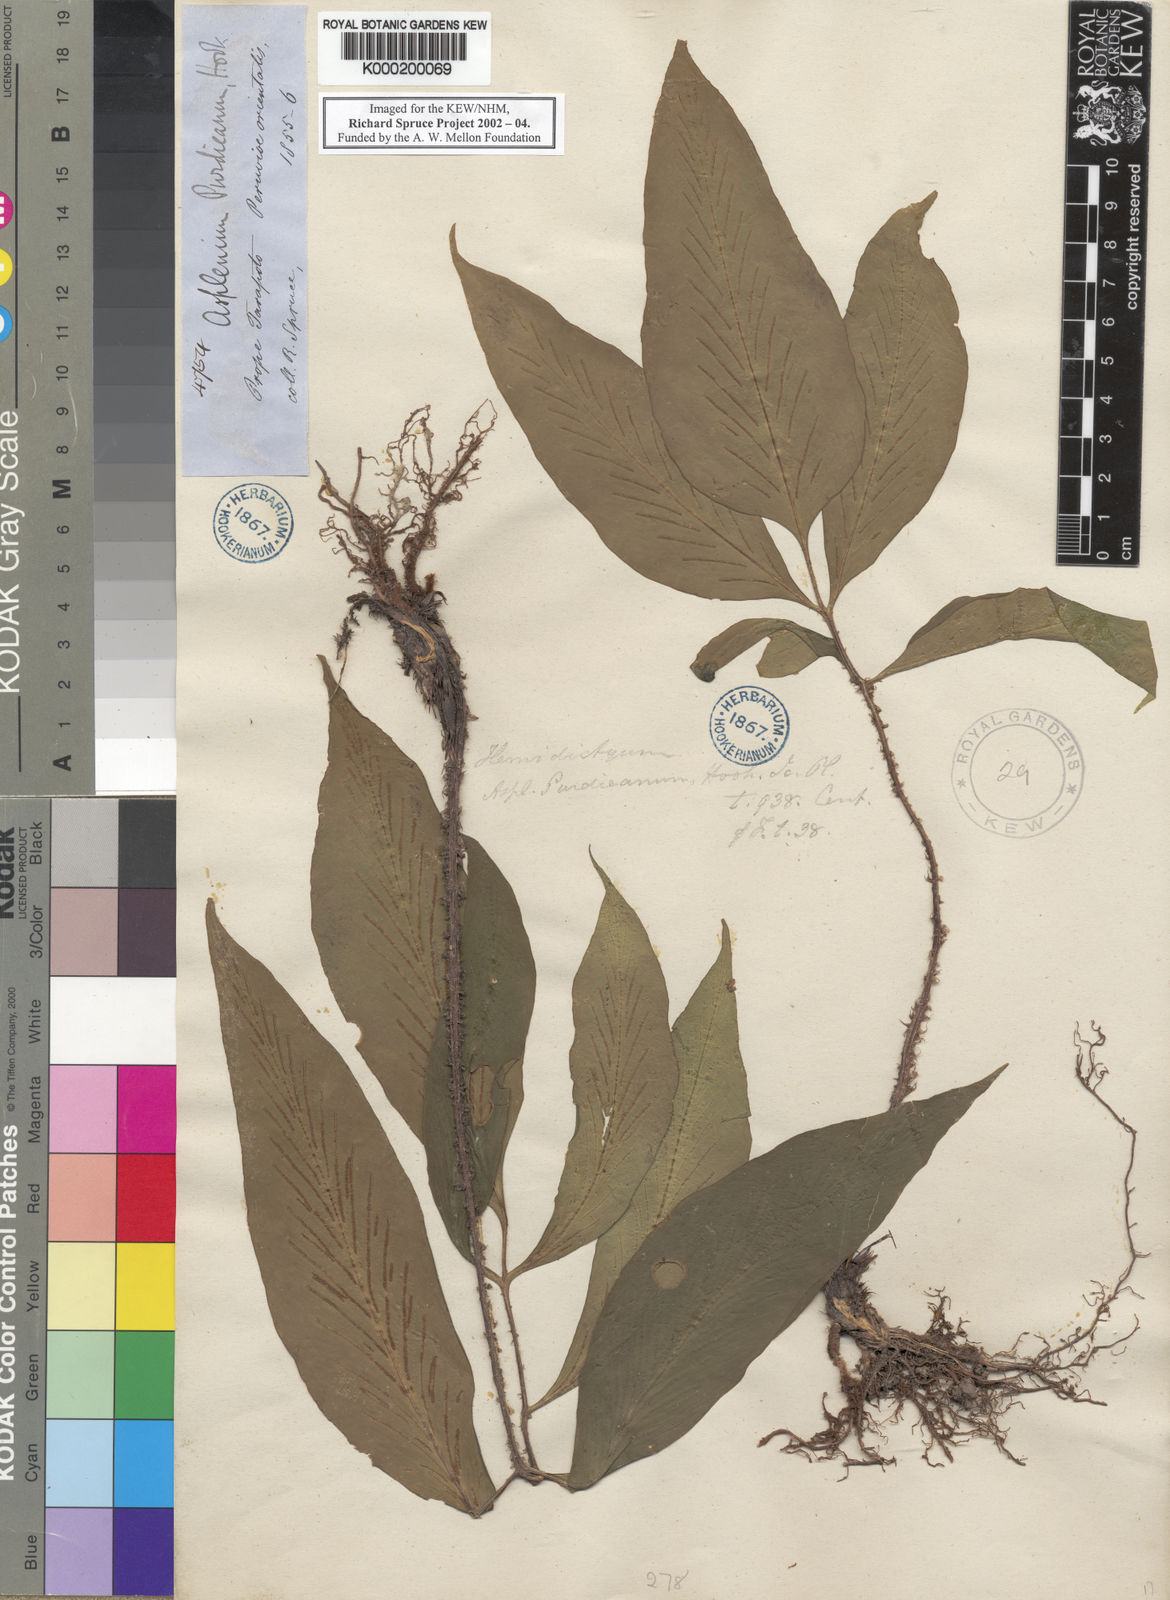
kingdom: Plantae
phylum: Tracheophyta
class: Polypodiopsida
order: Polypodiales
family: Aspleniaceae
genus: Asplenium
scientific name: Asplenium purdieanum
